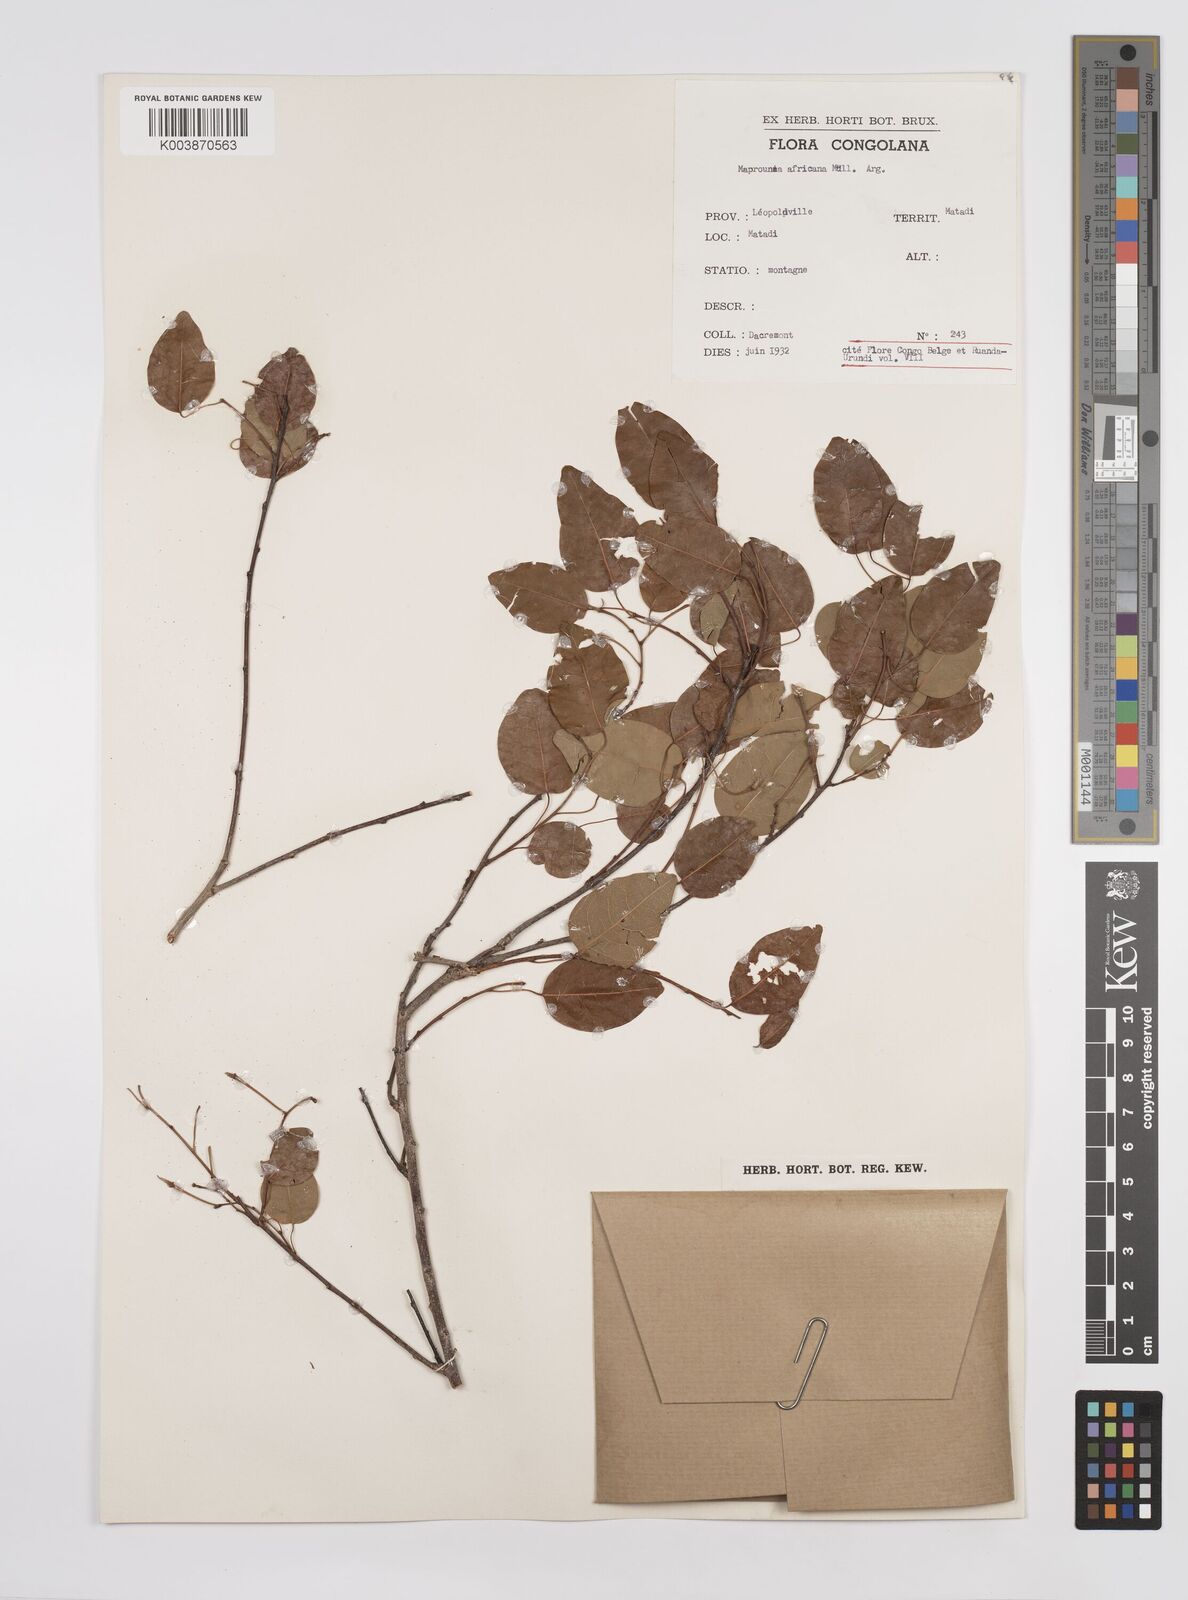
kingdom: Plantae
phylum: Tracheophyta
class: Magnoliopsida
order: Malpighiales
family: Euphorbiaceae
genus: Maprounea
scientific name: Maprounea africana
